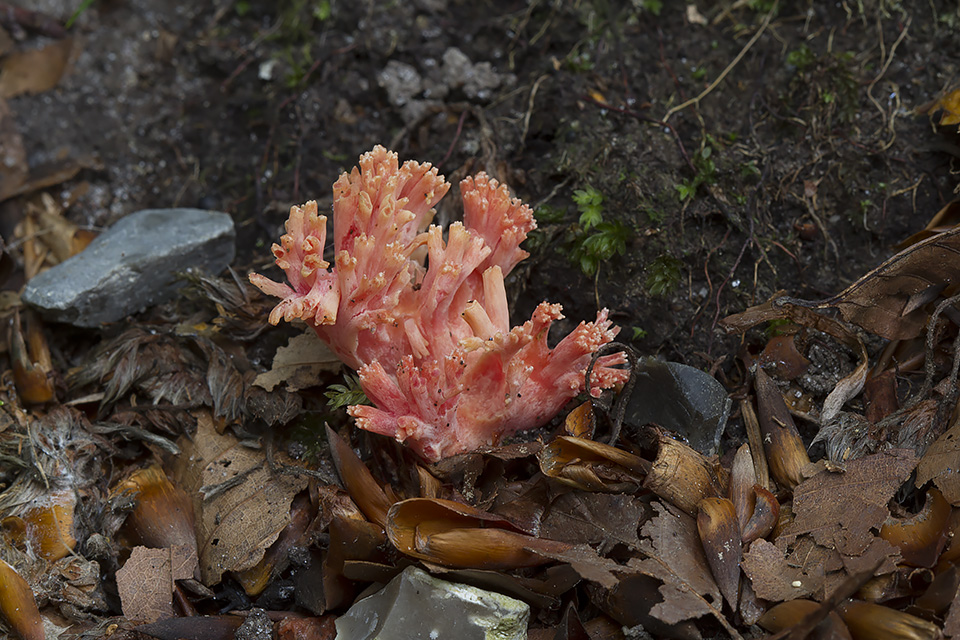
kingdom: Fungi
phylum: Basidiomycota
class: Agaricomycetes
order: Gomphales
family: Gomphaceae
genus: Ramaria
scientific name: Ramaria fagetorum
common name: abrikos-koralsvamp
